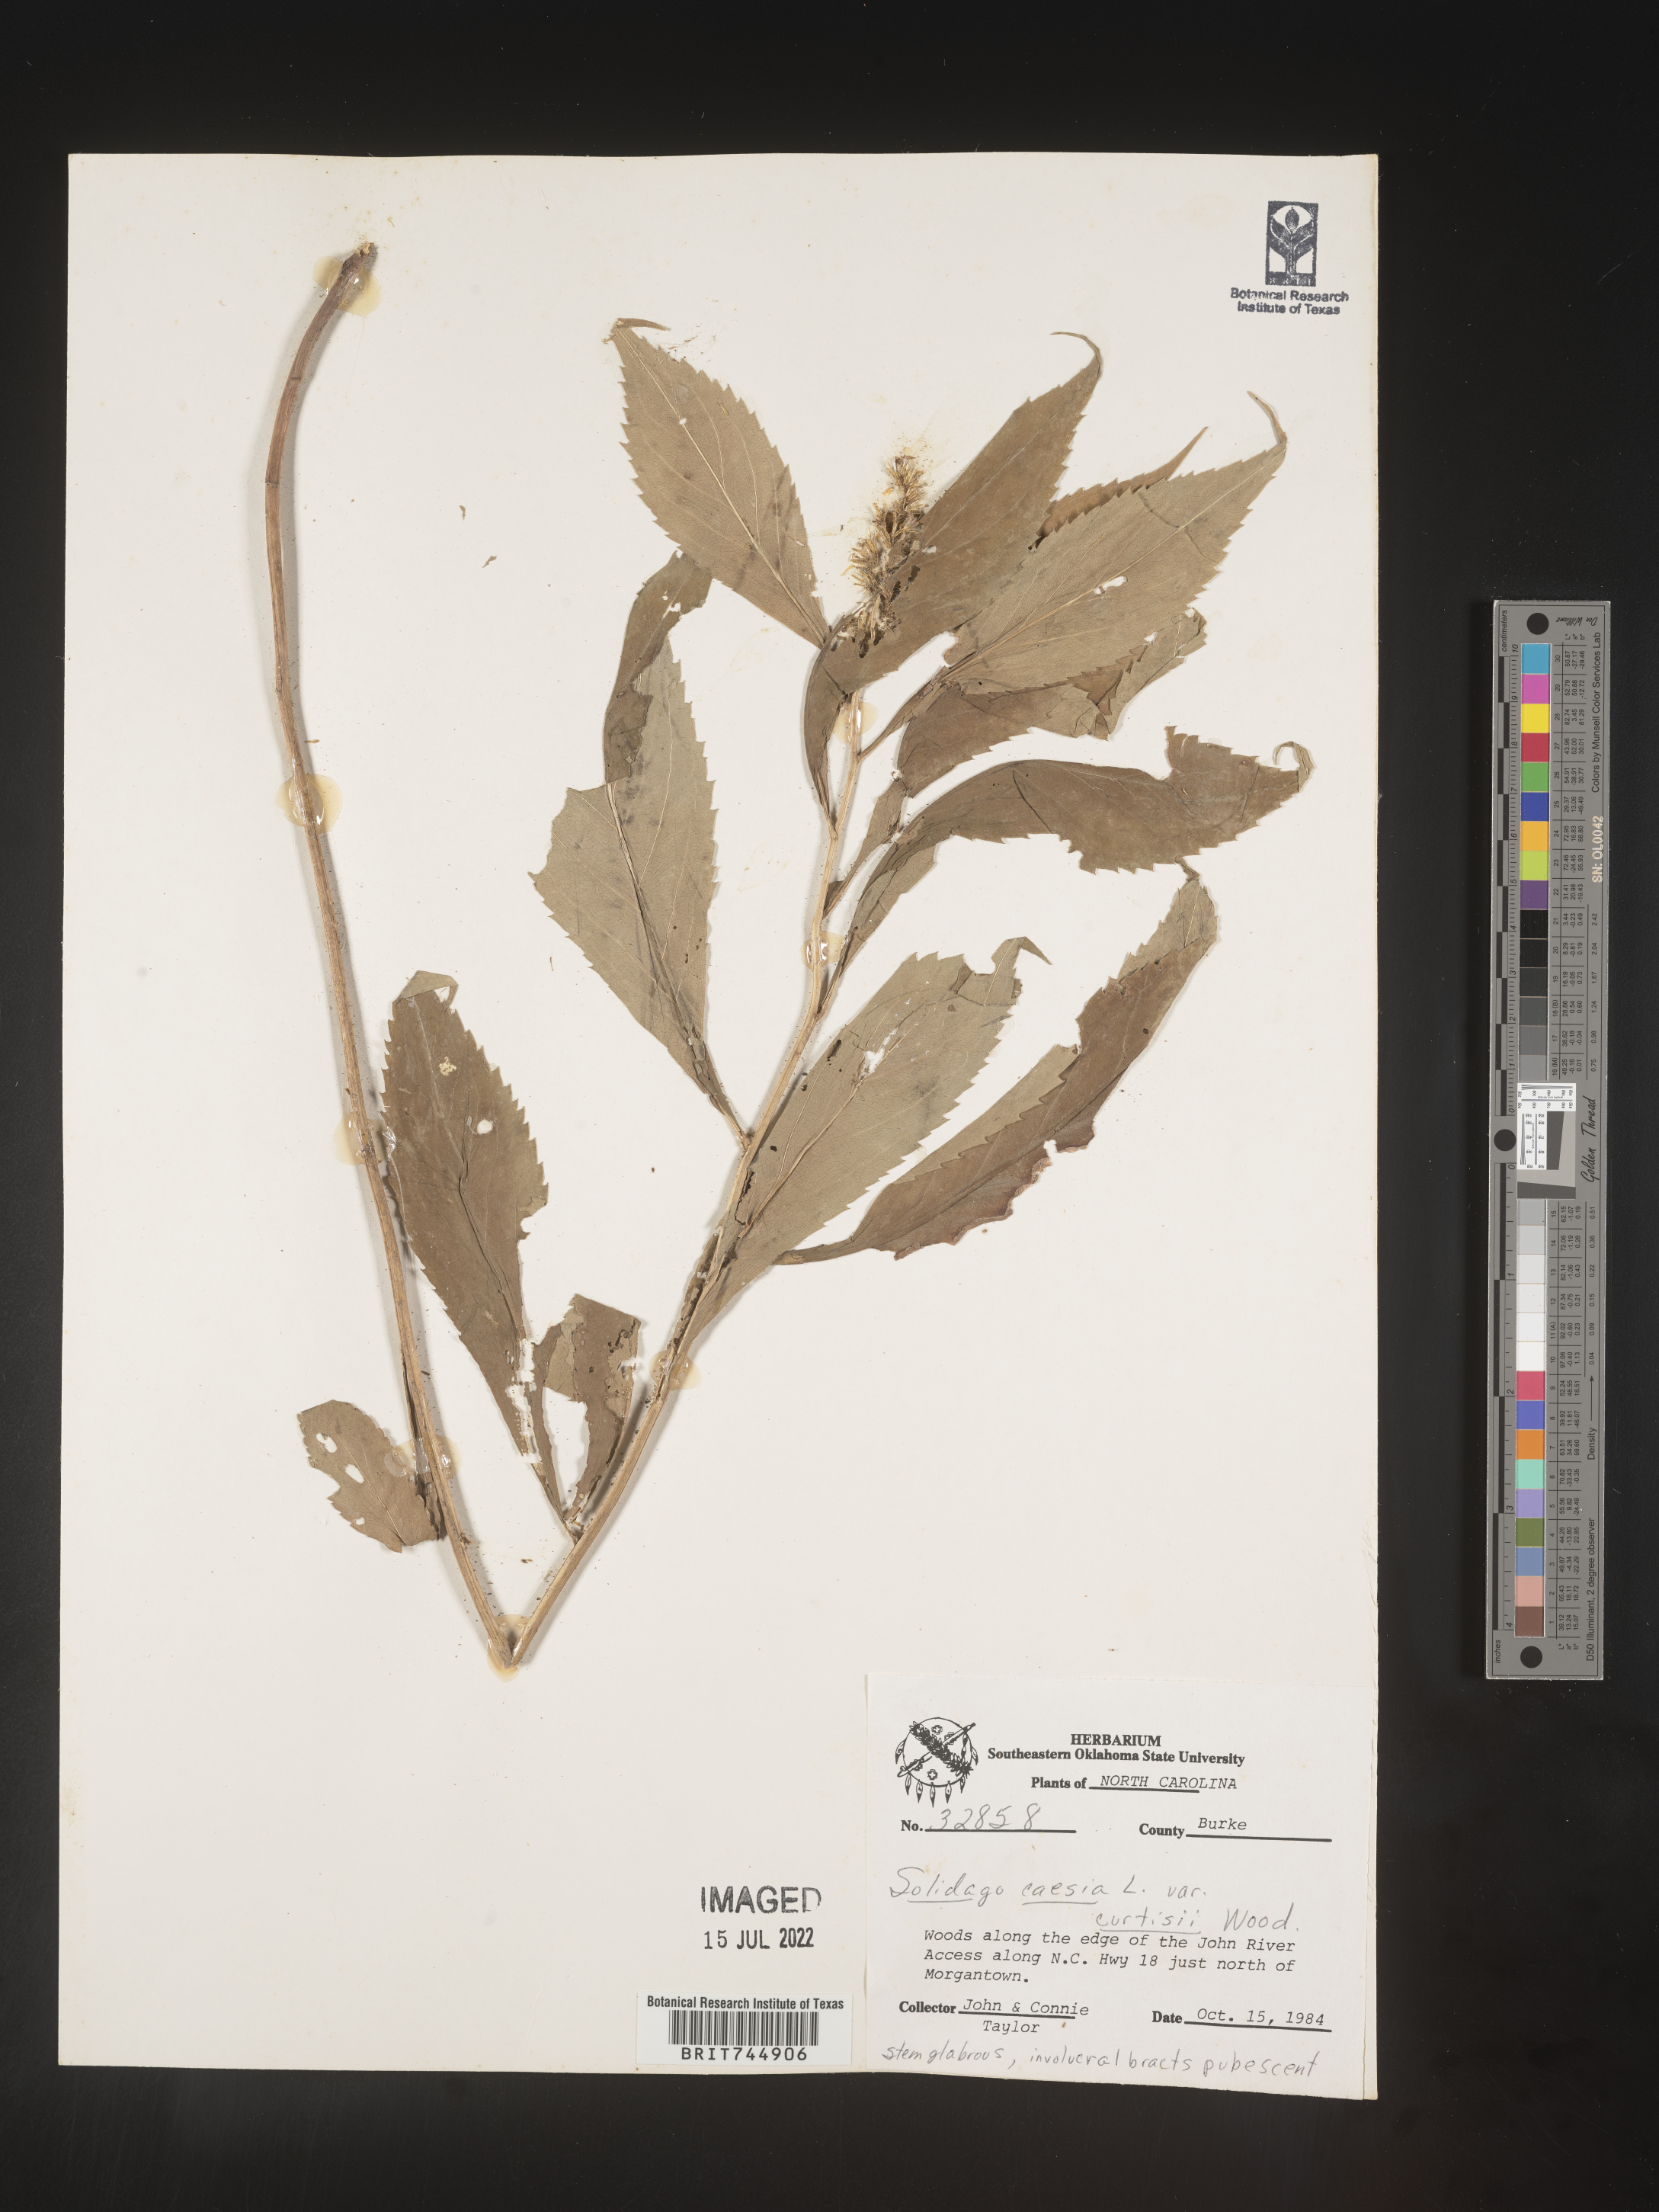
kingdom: Plantae
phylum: Tracheophyta
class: Magnoliopsida
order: Asterales
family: Asteraceae
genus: Solidago
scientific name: Solidago curtisii
